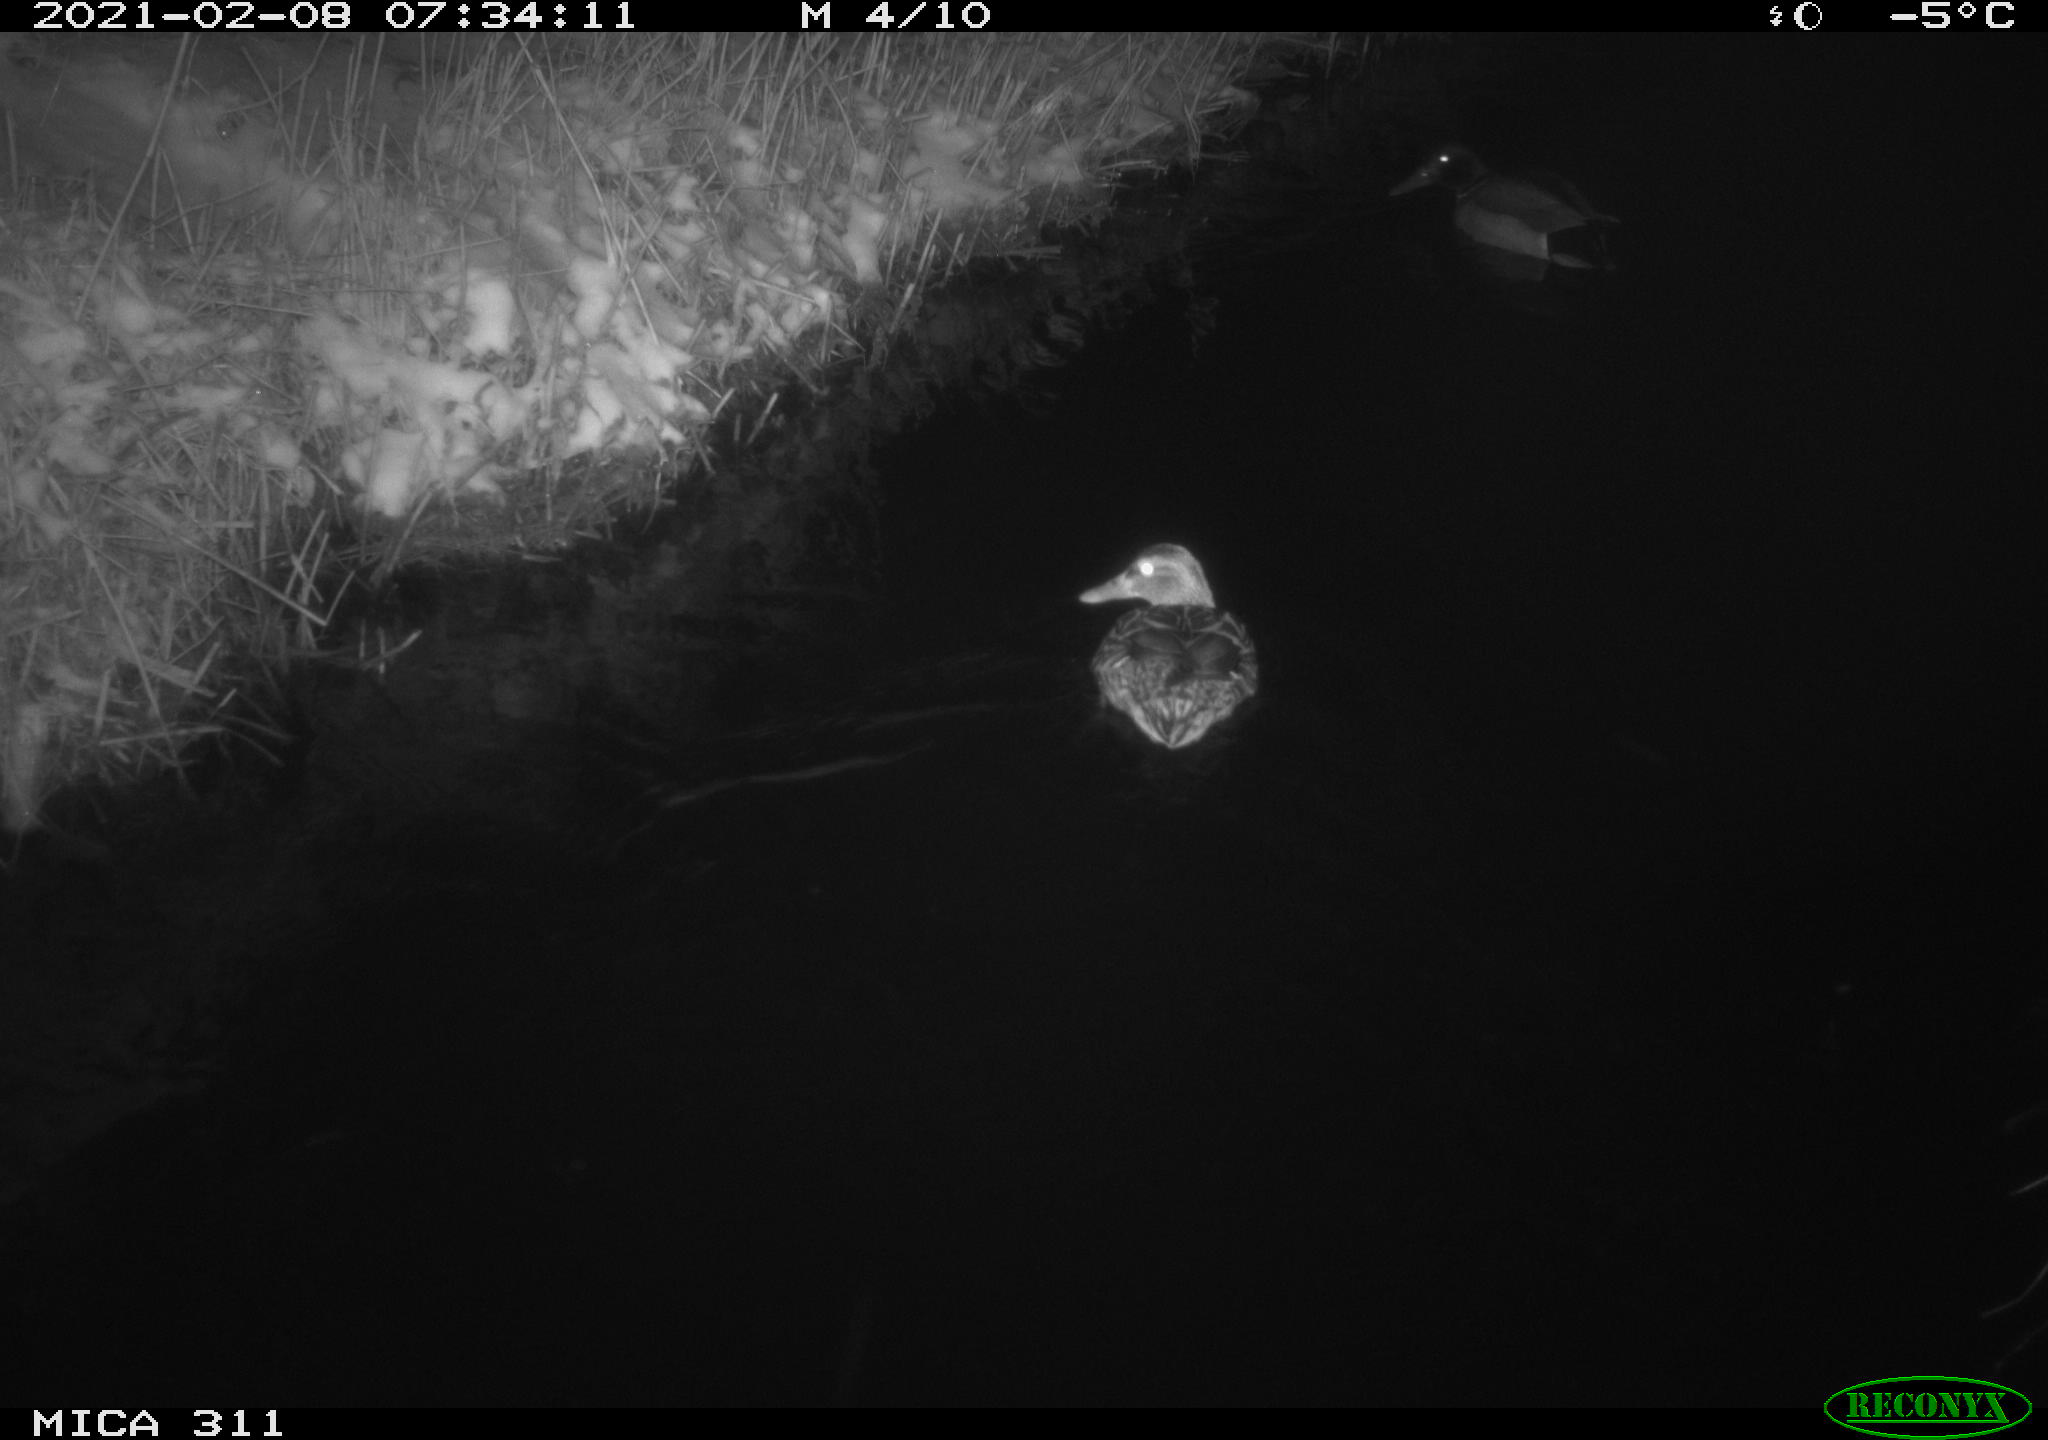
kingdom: Animalia
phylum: Chordata
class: Aves
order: Anseriformes
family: Anatidae
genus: Anas
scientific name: Anas platyrhynchos
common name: Mallard
